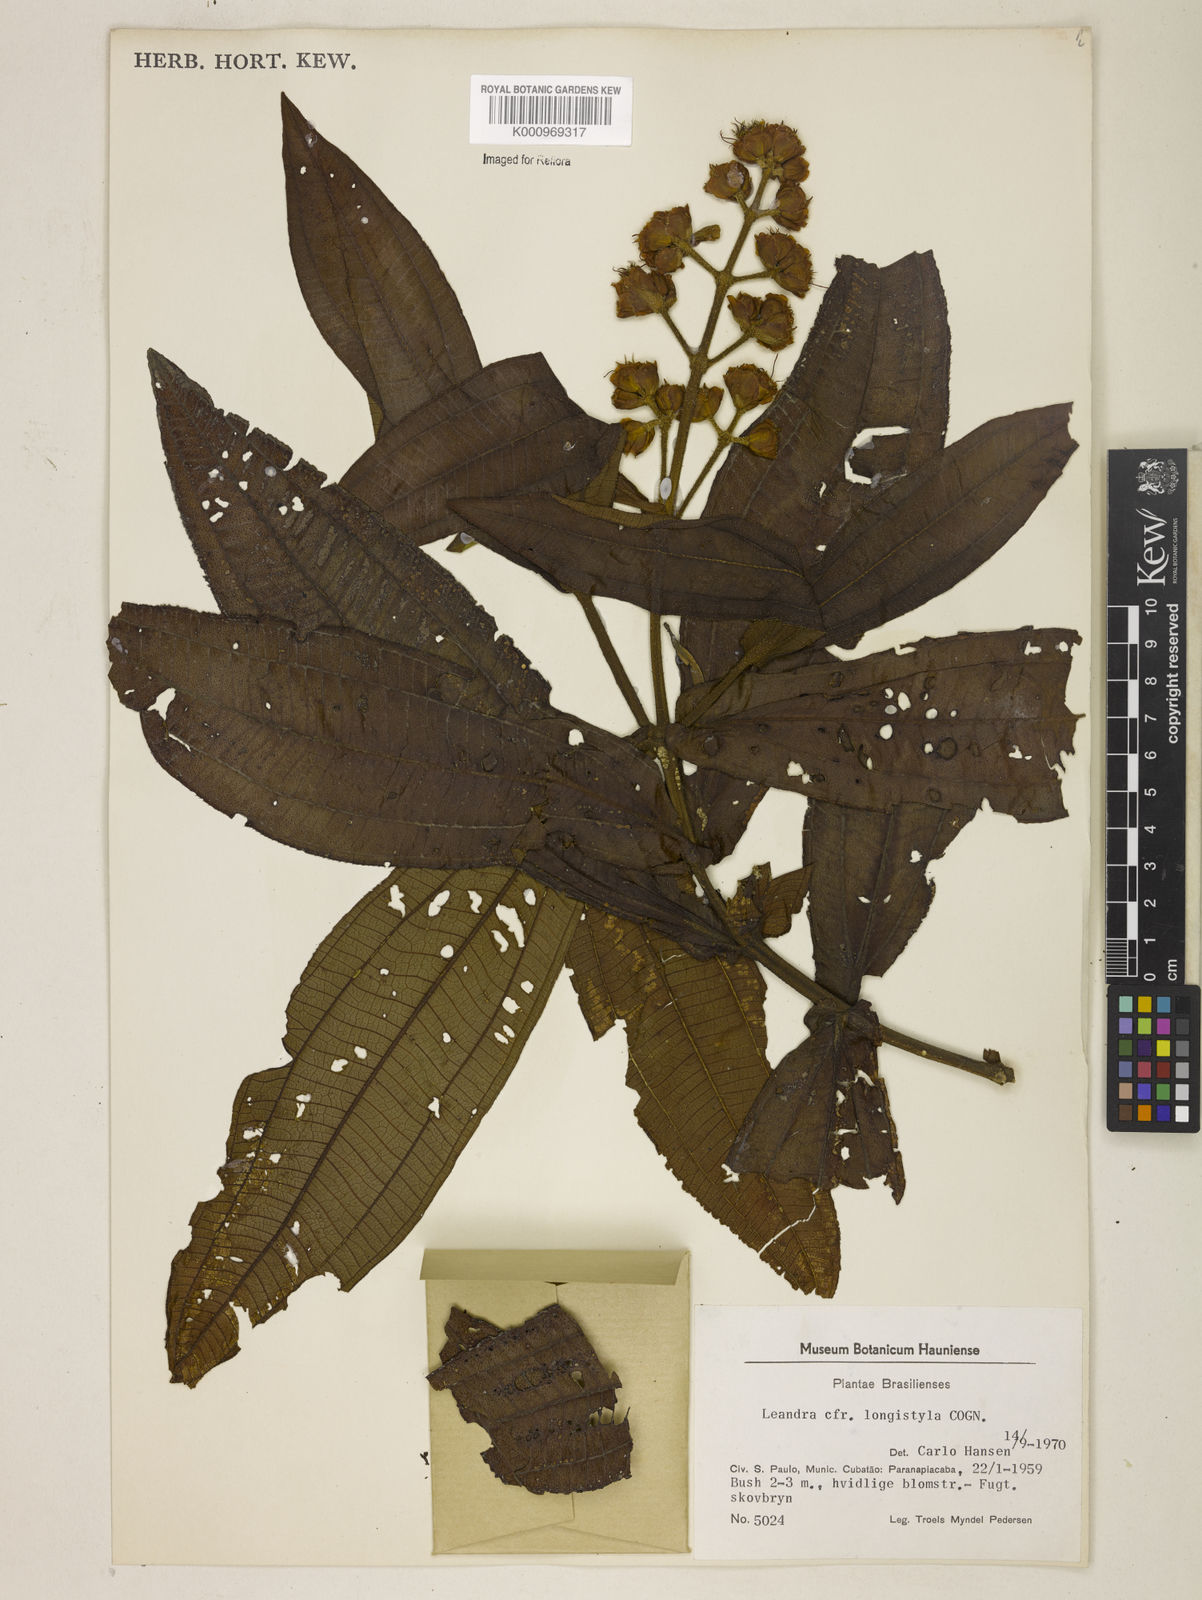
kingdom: Plantae
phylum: Tracheophyta
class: Magnoliopsida
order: Myrtales
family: Melastomataceae
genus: Miconia
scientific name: Miconia pectinata
